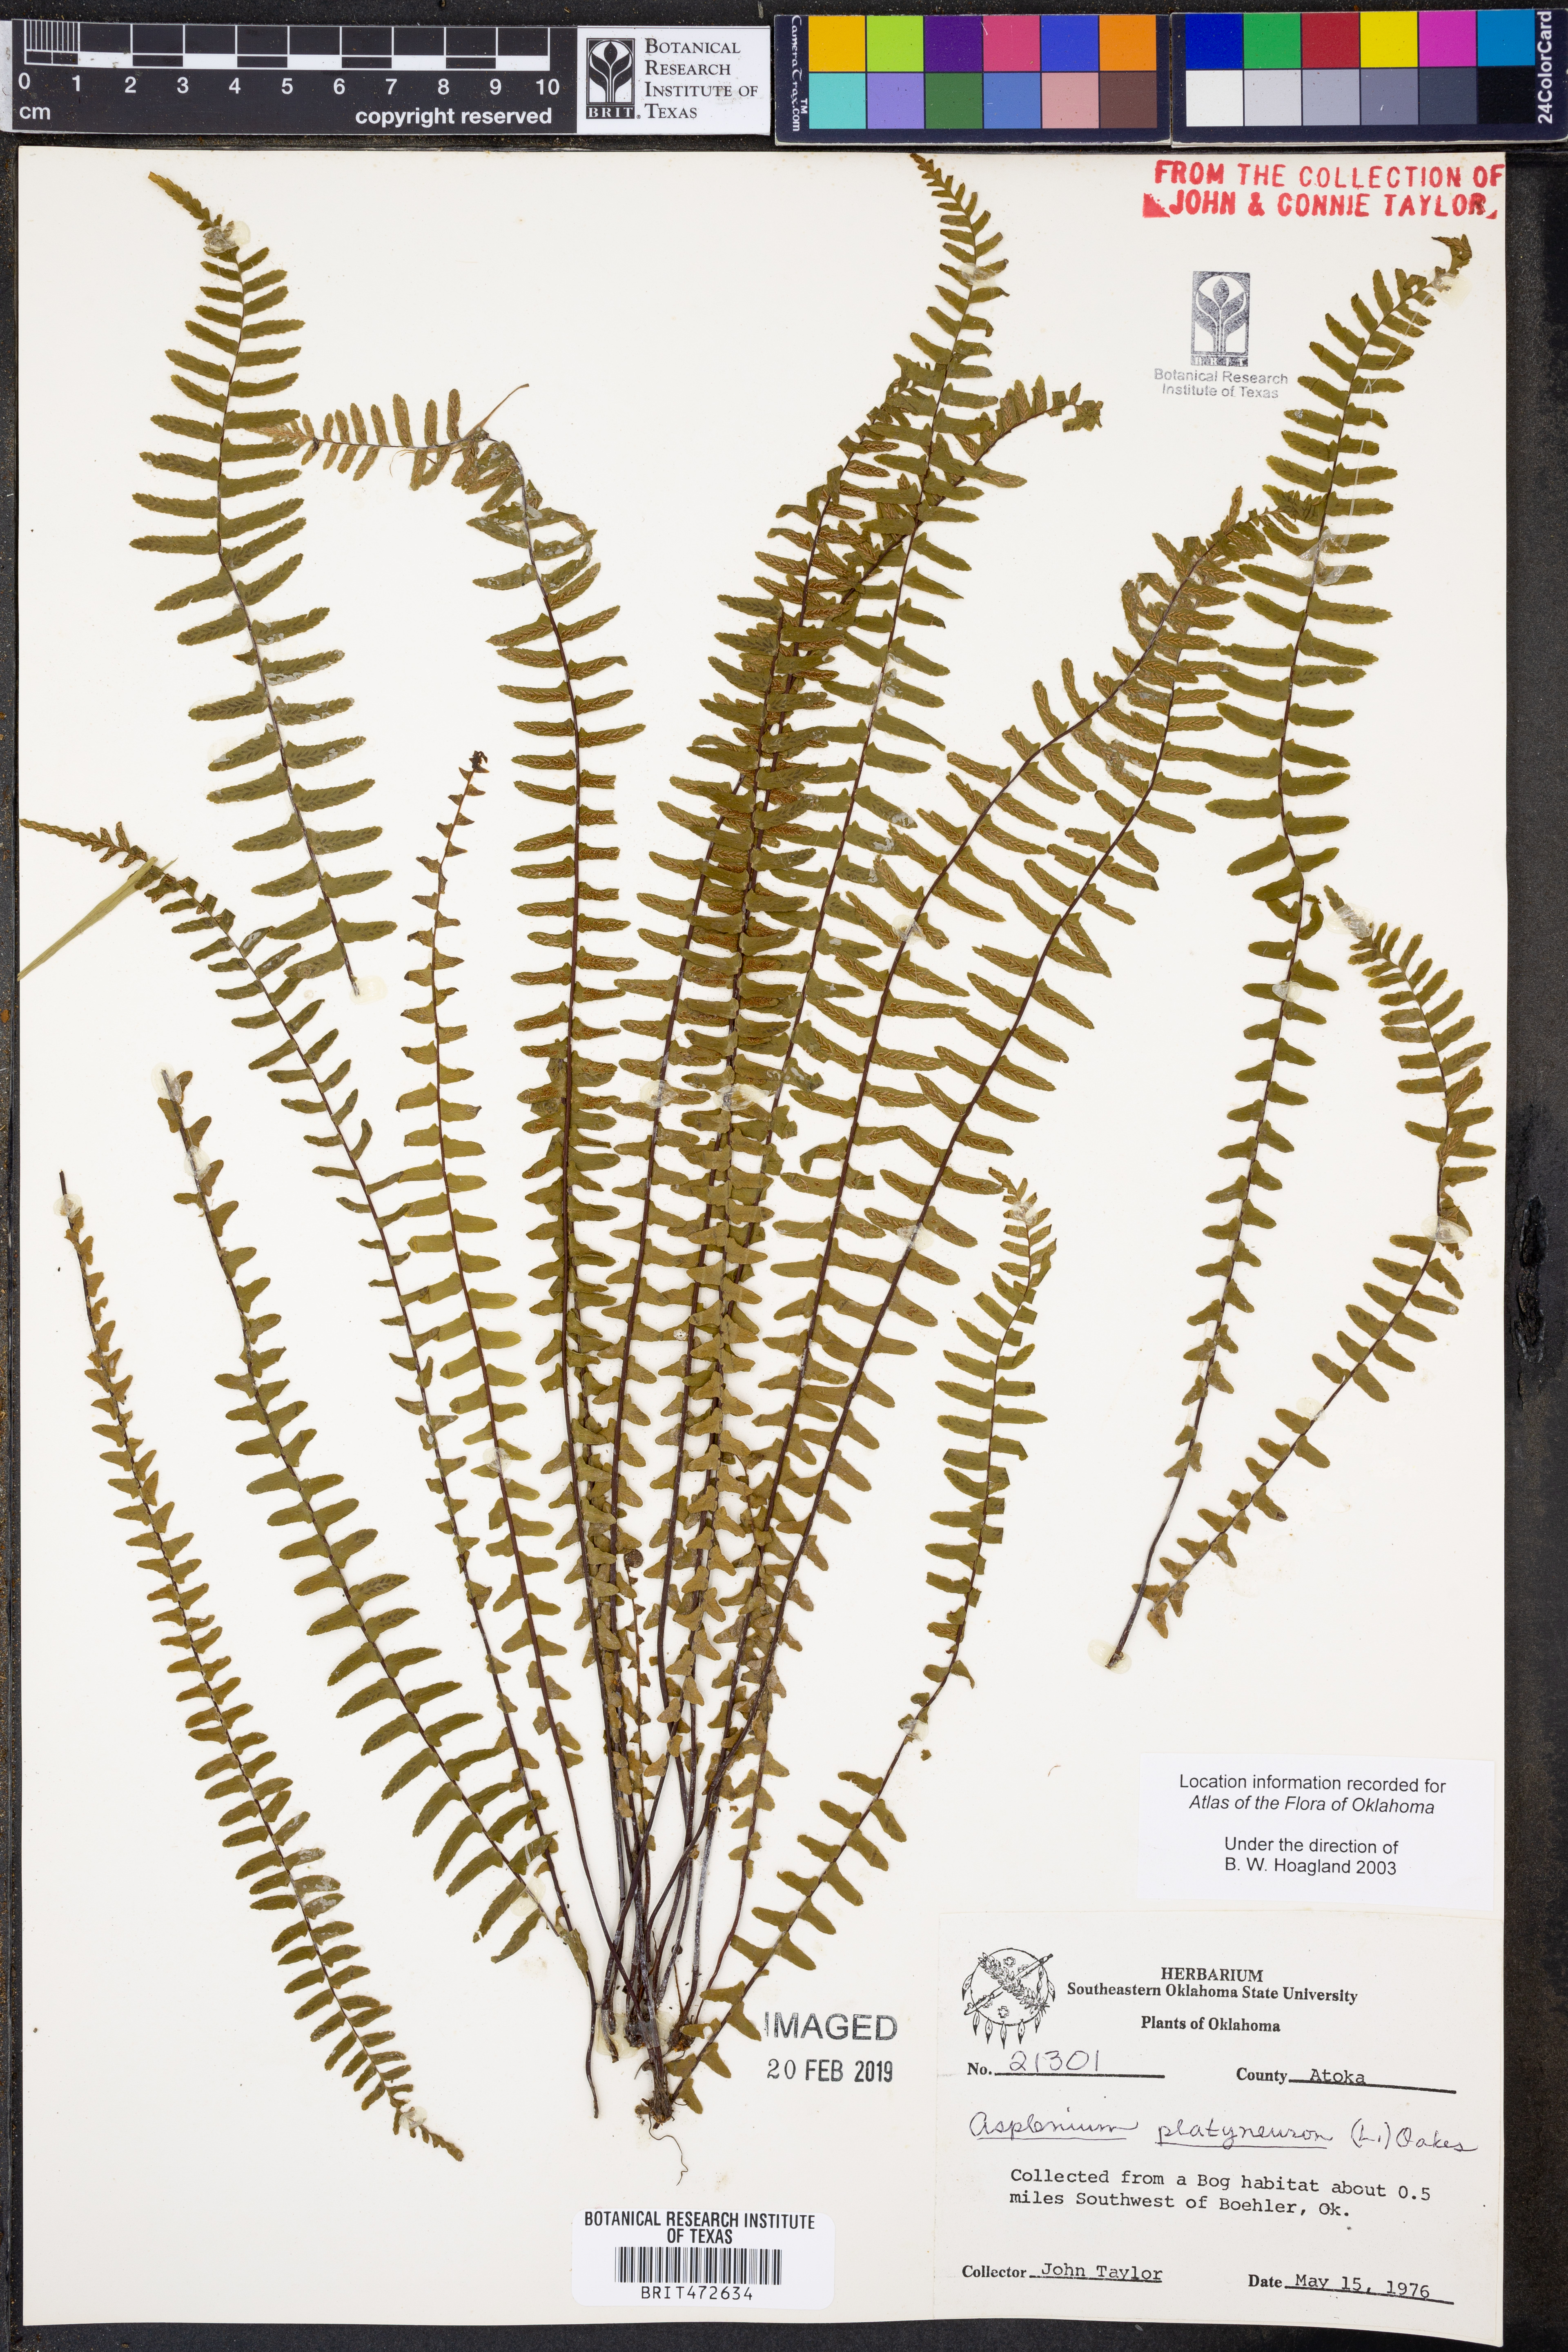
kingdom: Plantae
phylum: Tracheophyta
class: Polypodiopsida
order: Polypodiales
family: Aspleniaceae
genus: Asplenium
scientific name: Asplenium platyneuron
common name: Ebony spleenwort
